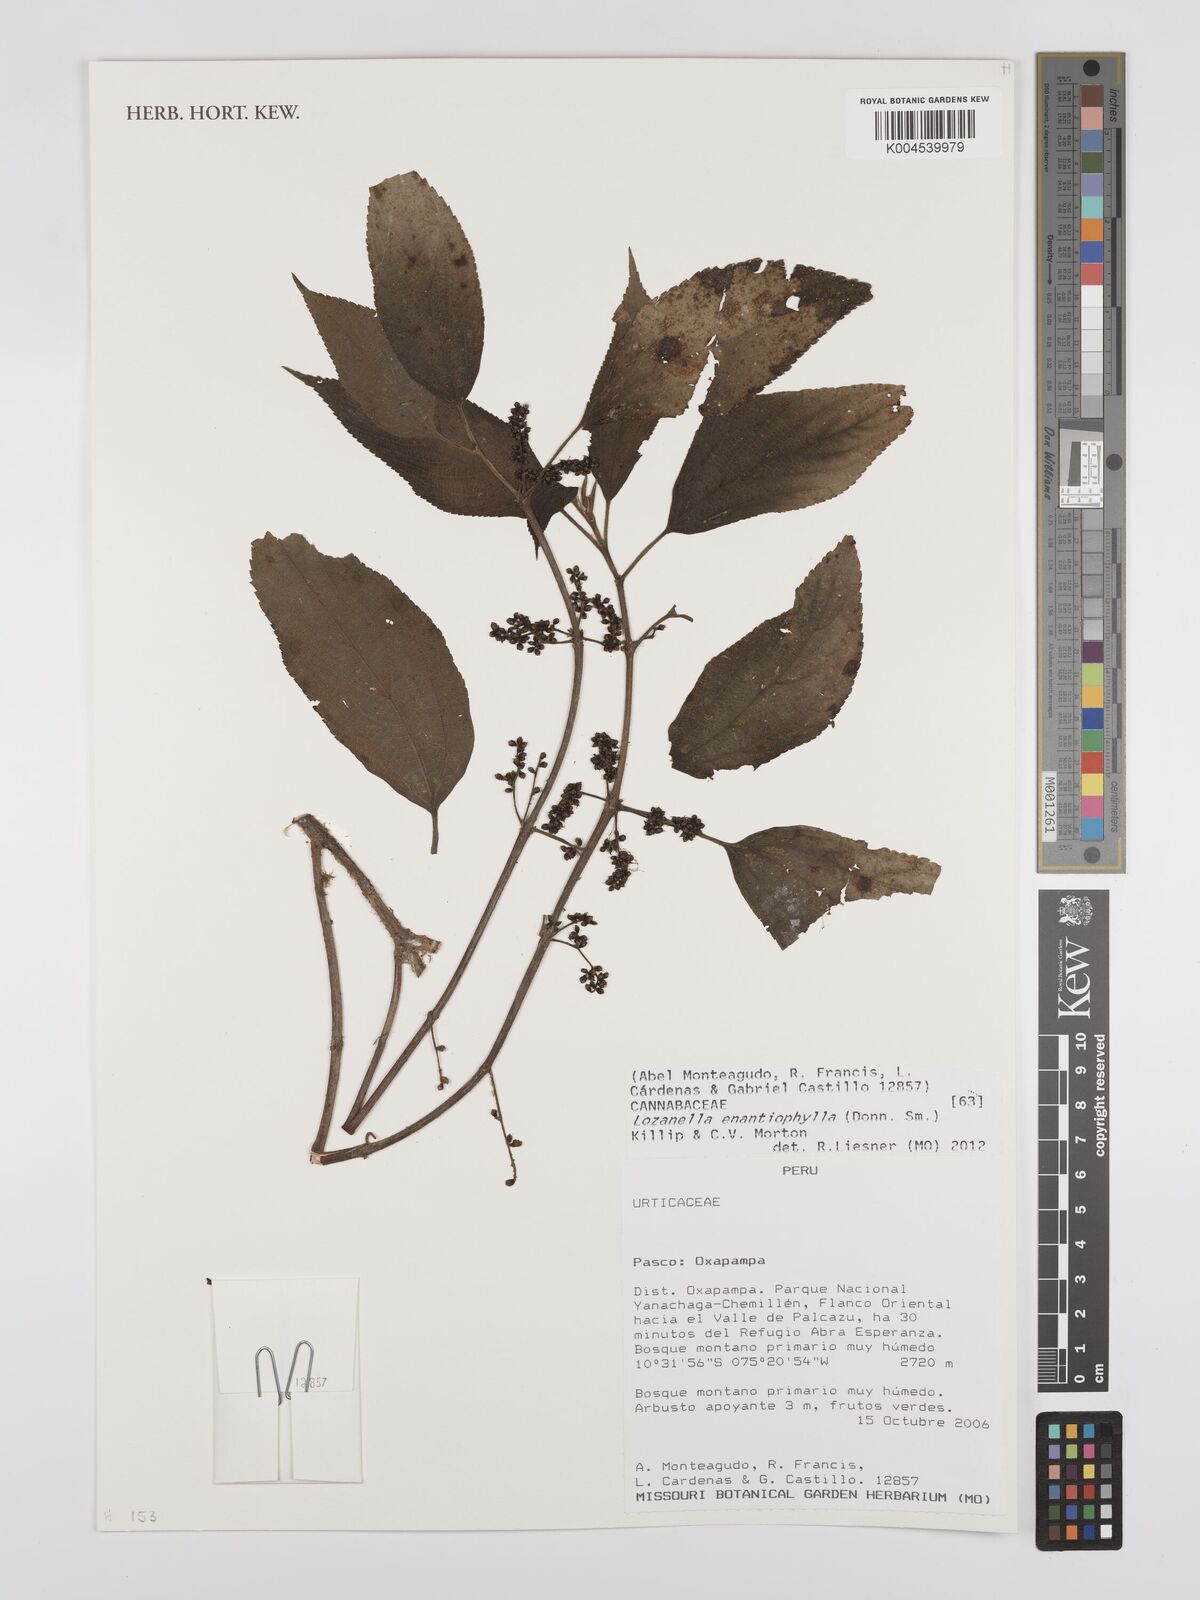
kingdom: Plantae
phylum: Tracheophyta
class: Magnoliopsida
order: Rosales
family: Cannabaceae
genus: Lozanella
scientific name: Lozanella enantiophylla
